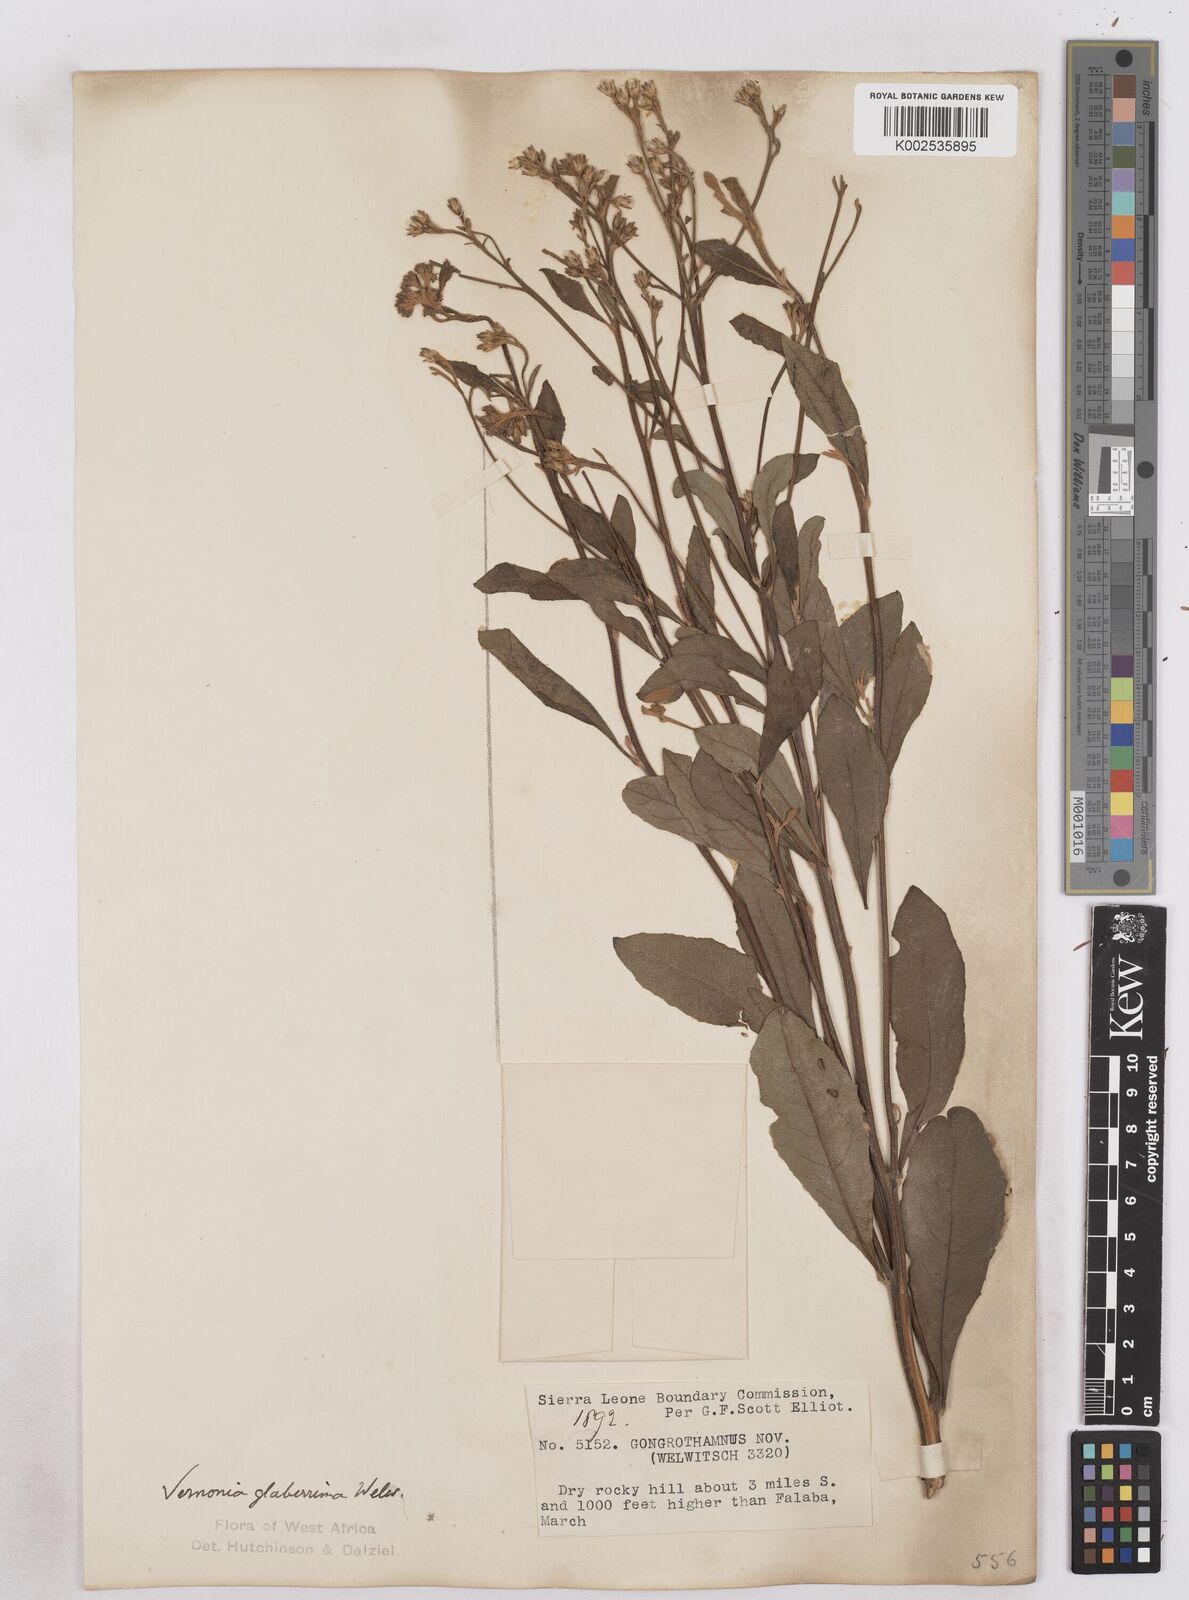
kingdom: Plantae
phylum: Tracheophyta
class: Magnoliopsida
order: Asterales
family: Asteraceae
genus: Gymnanthemum
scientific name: Gymnanthemum glaberrimum
